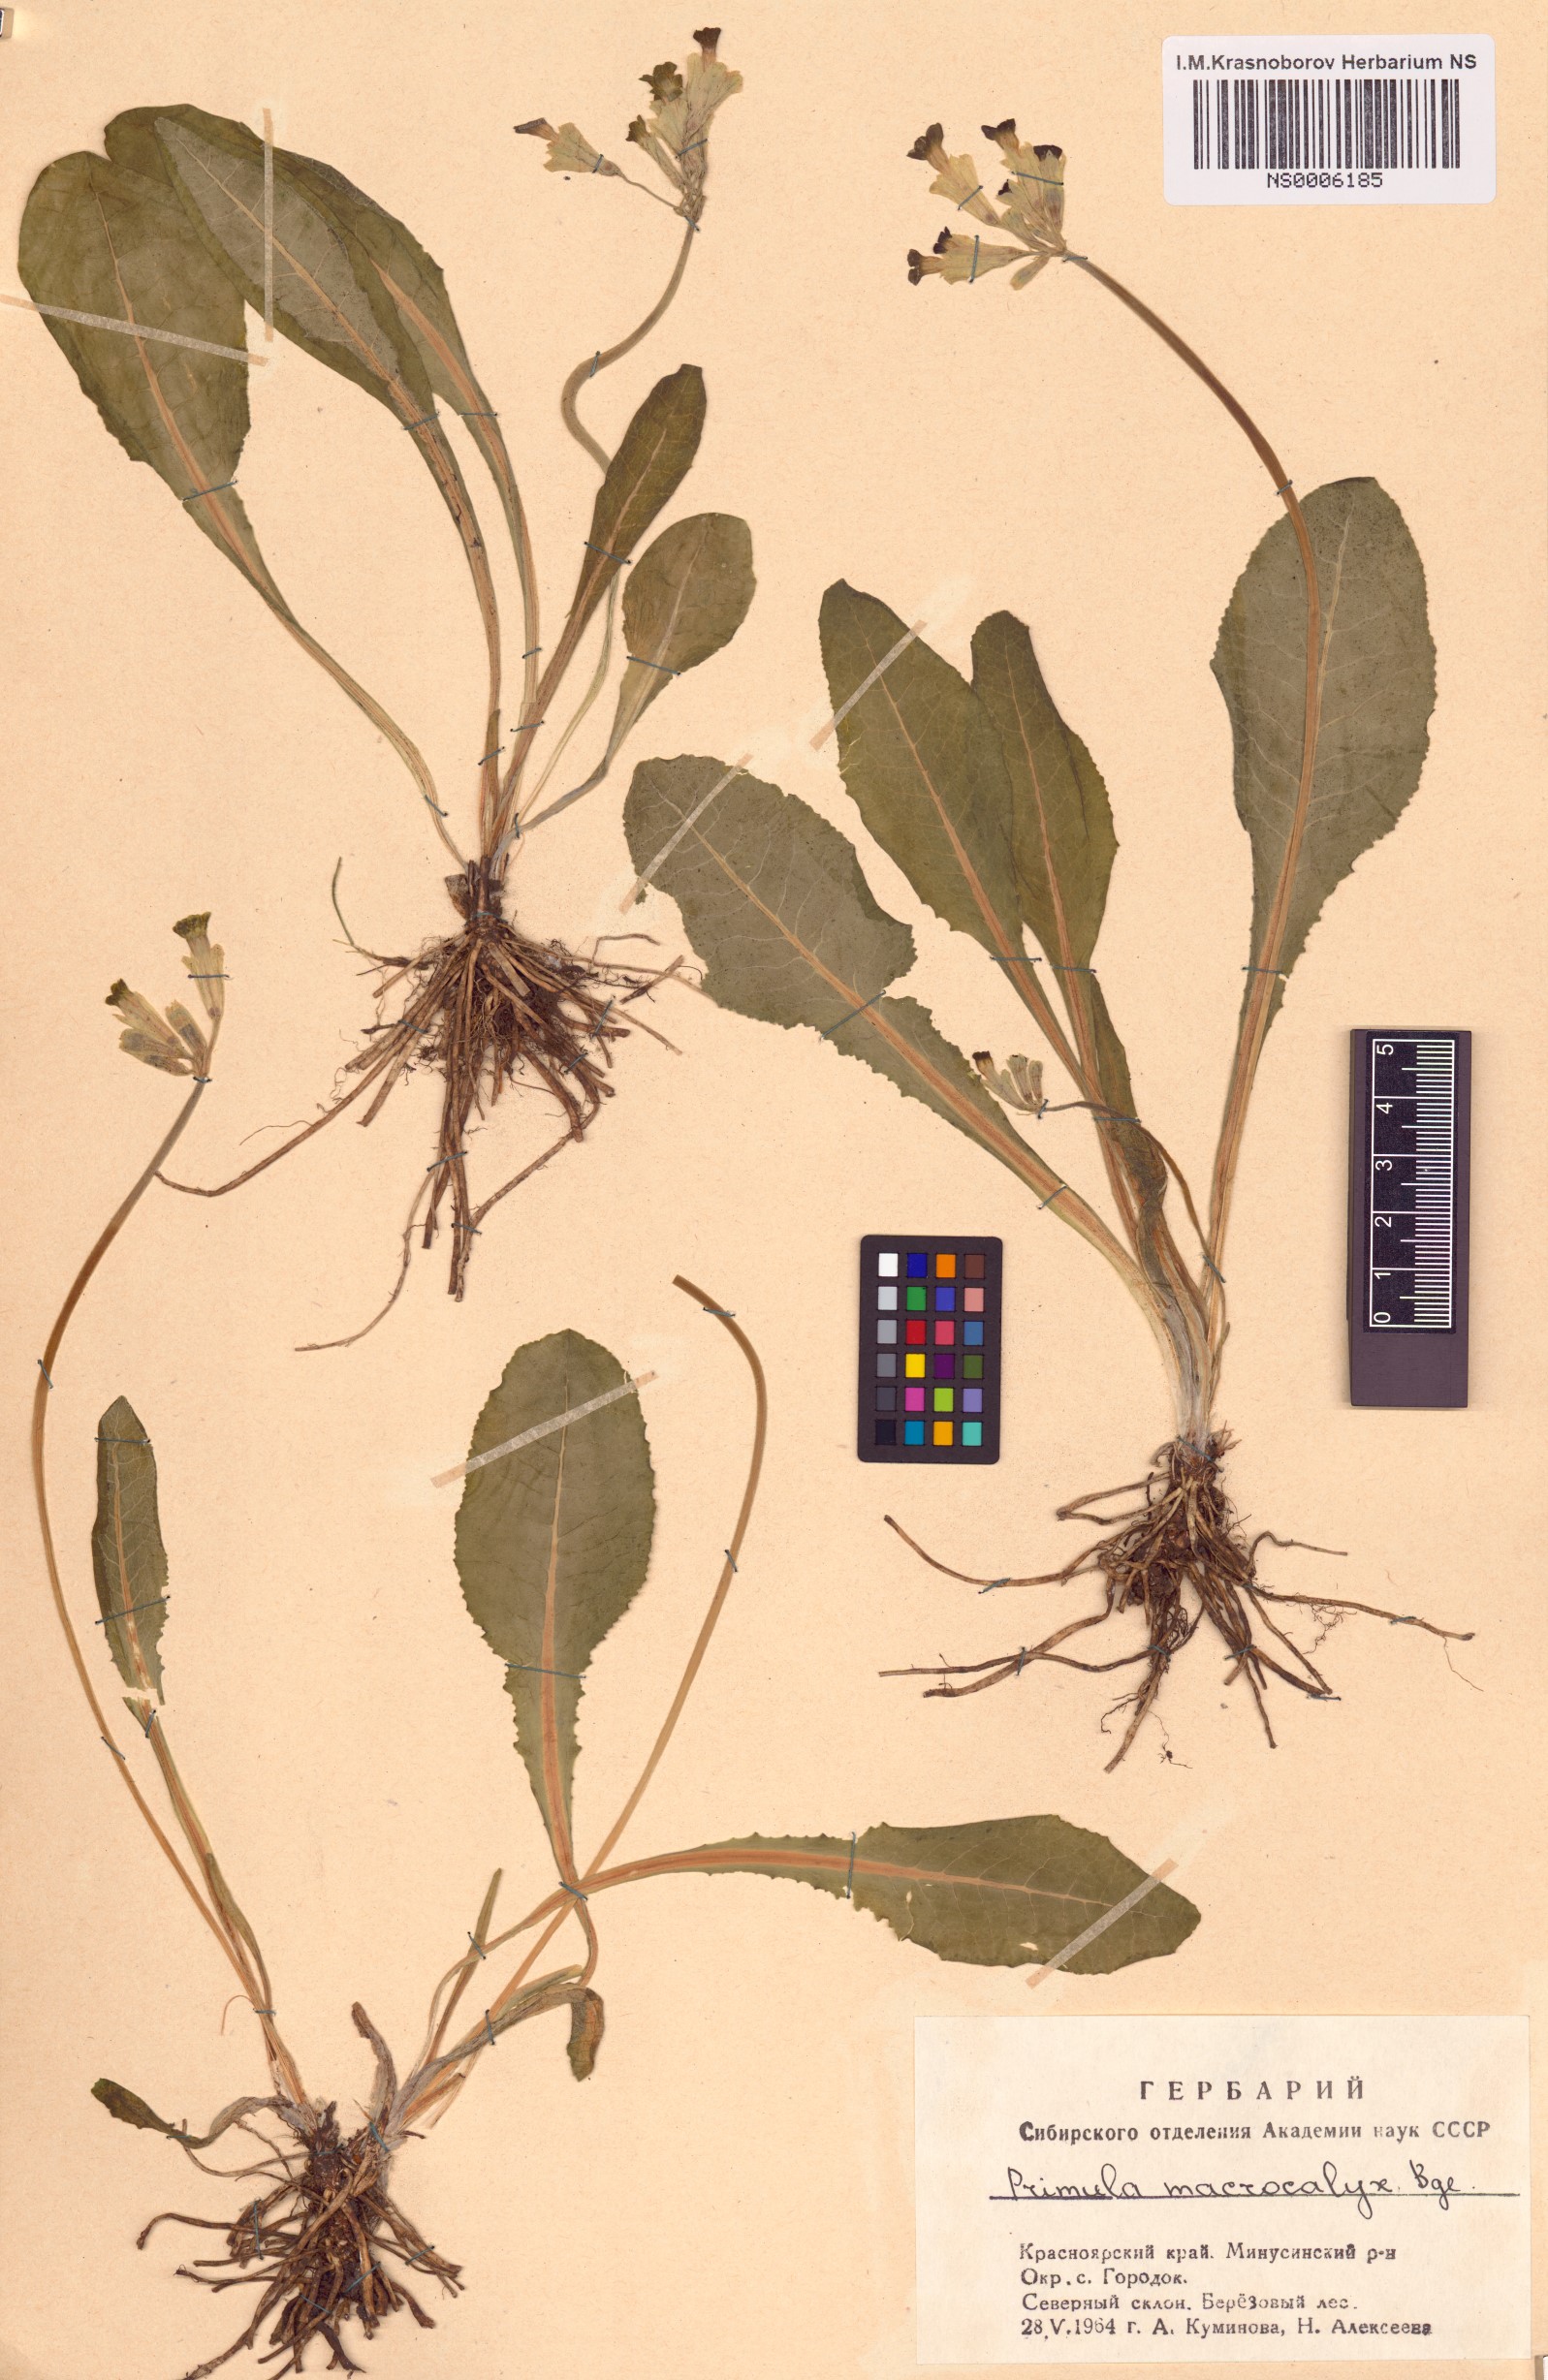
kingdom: Plantae
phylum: Tracheophyta
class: Magnoliopsida
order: Ericales
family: Primulaceae
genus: Primula
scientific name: Primula veris
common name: Cowslip
